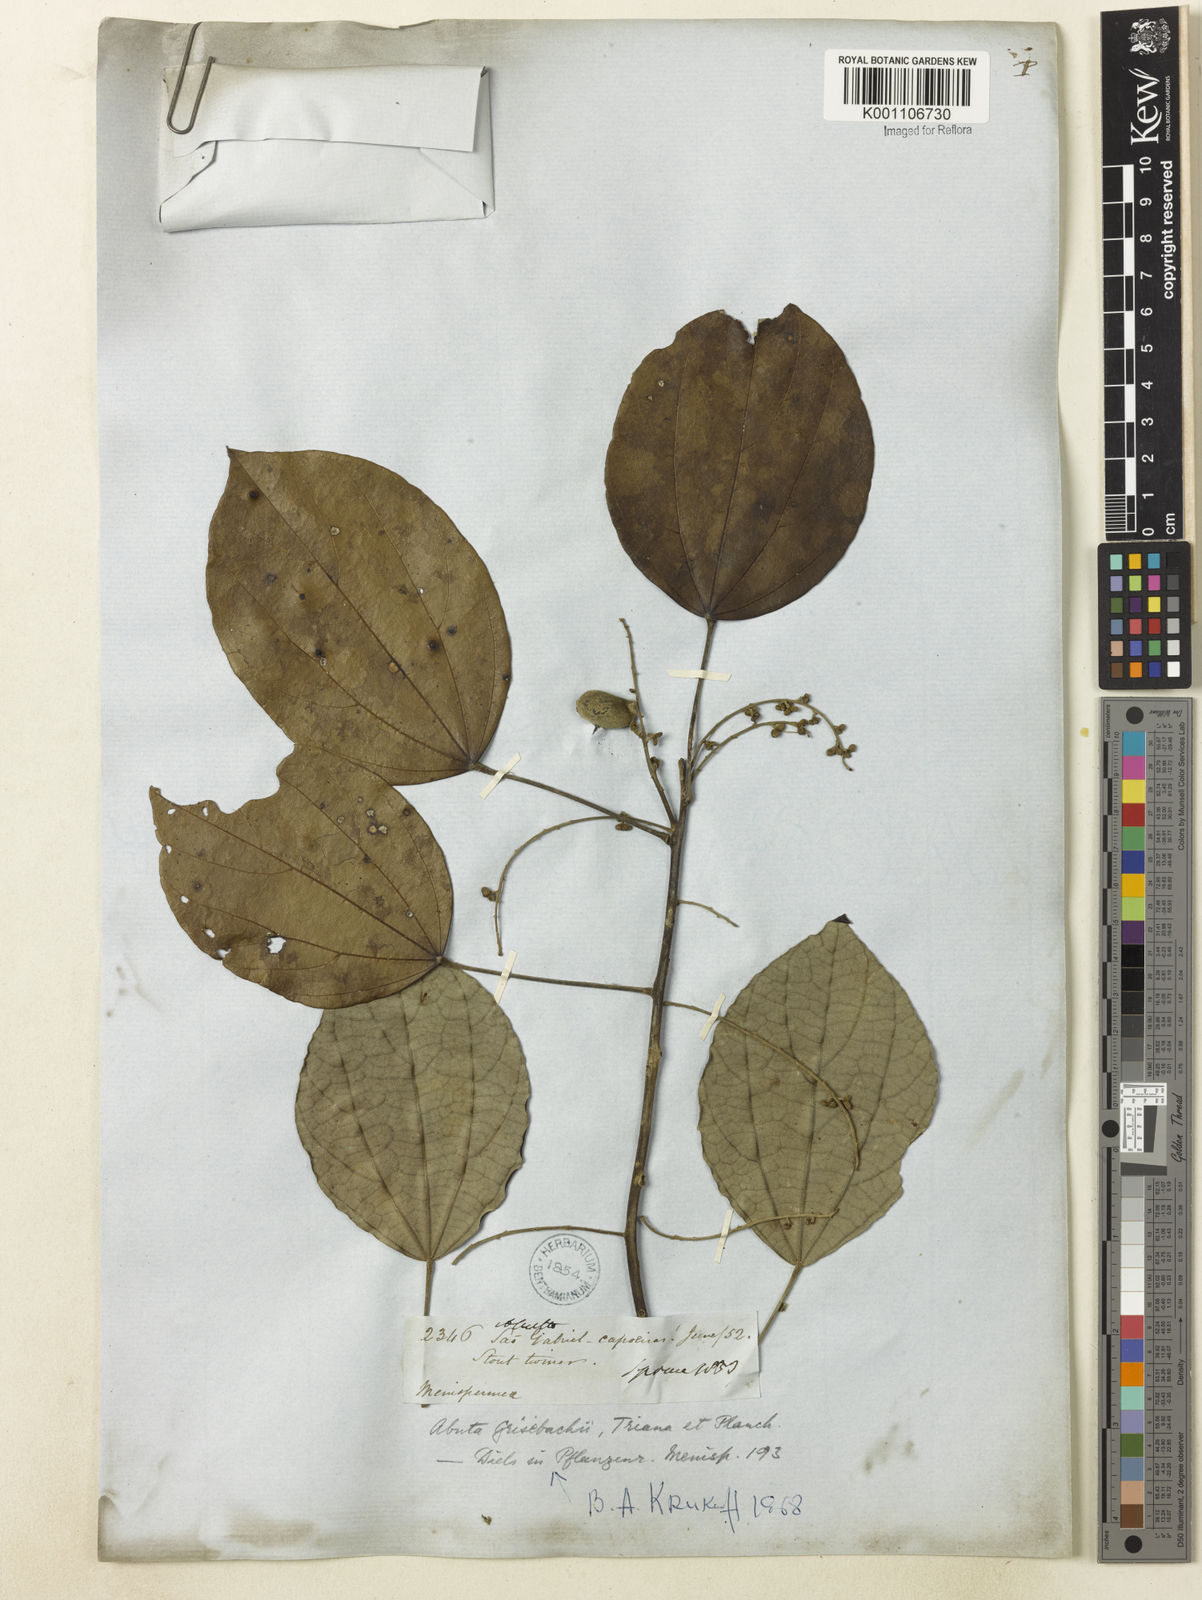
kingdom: Plantae
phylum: Tracheophyta
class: Magnoliopsida
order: Ranunculales
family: Menispermaceae
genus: Abuta
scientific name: Abuta grisebachii
